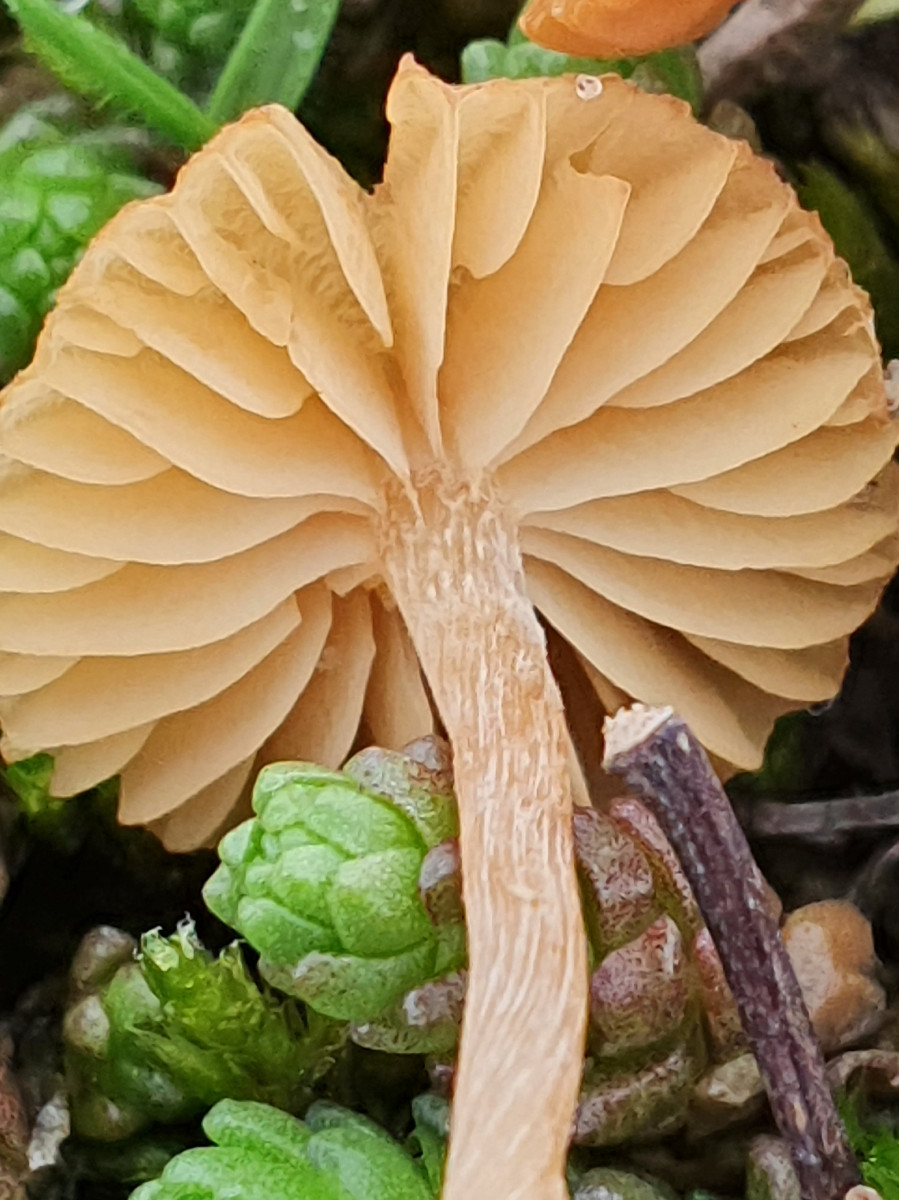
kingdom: Fungi
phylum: Basidiomycota
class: Agaricomycetes
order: Agaricales
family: Hymenogastraceae
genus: Galerina
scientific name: Galerina
